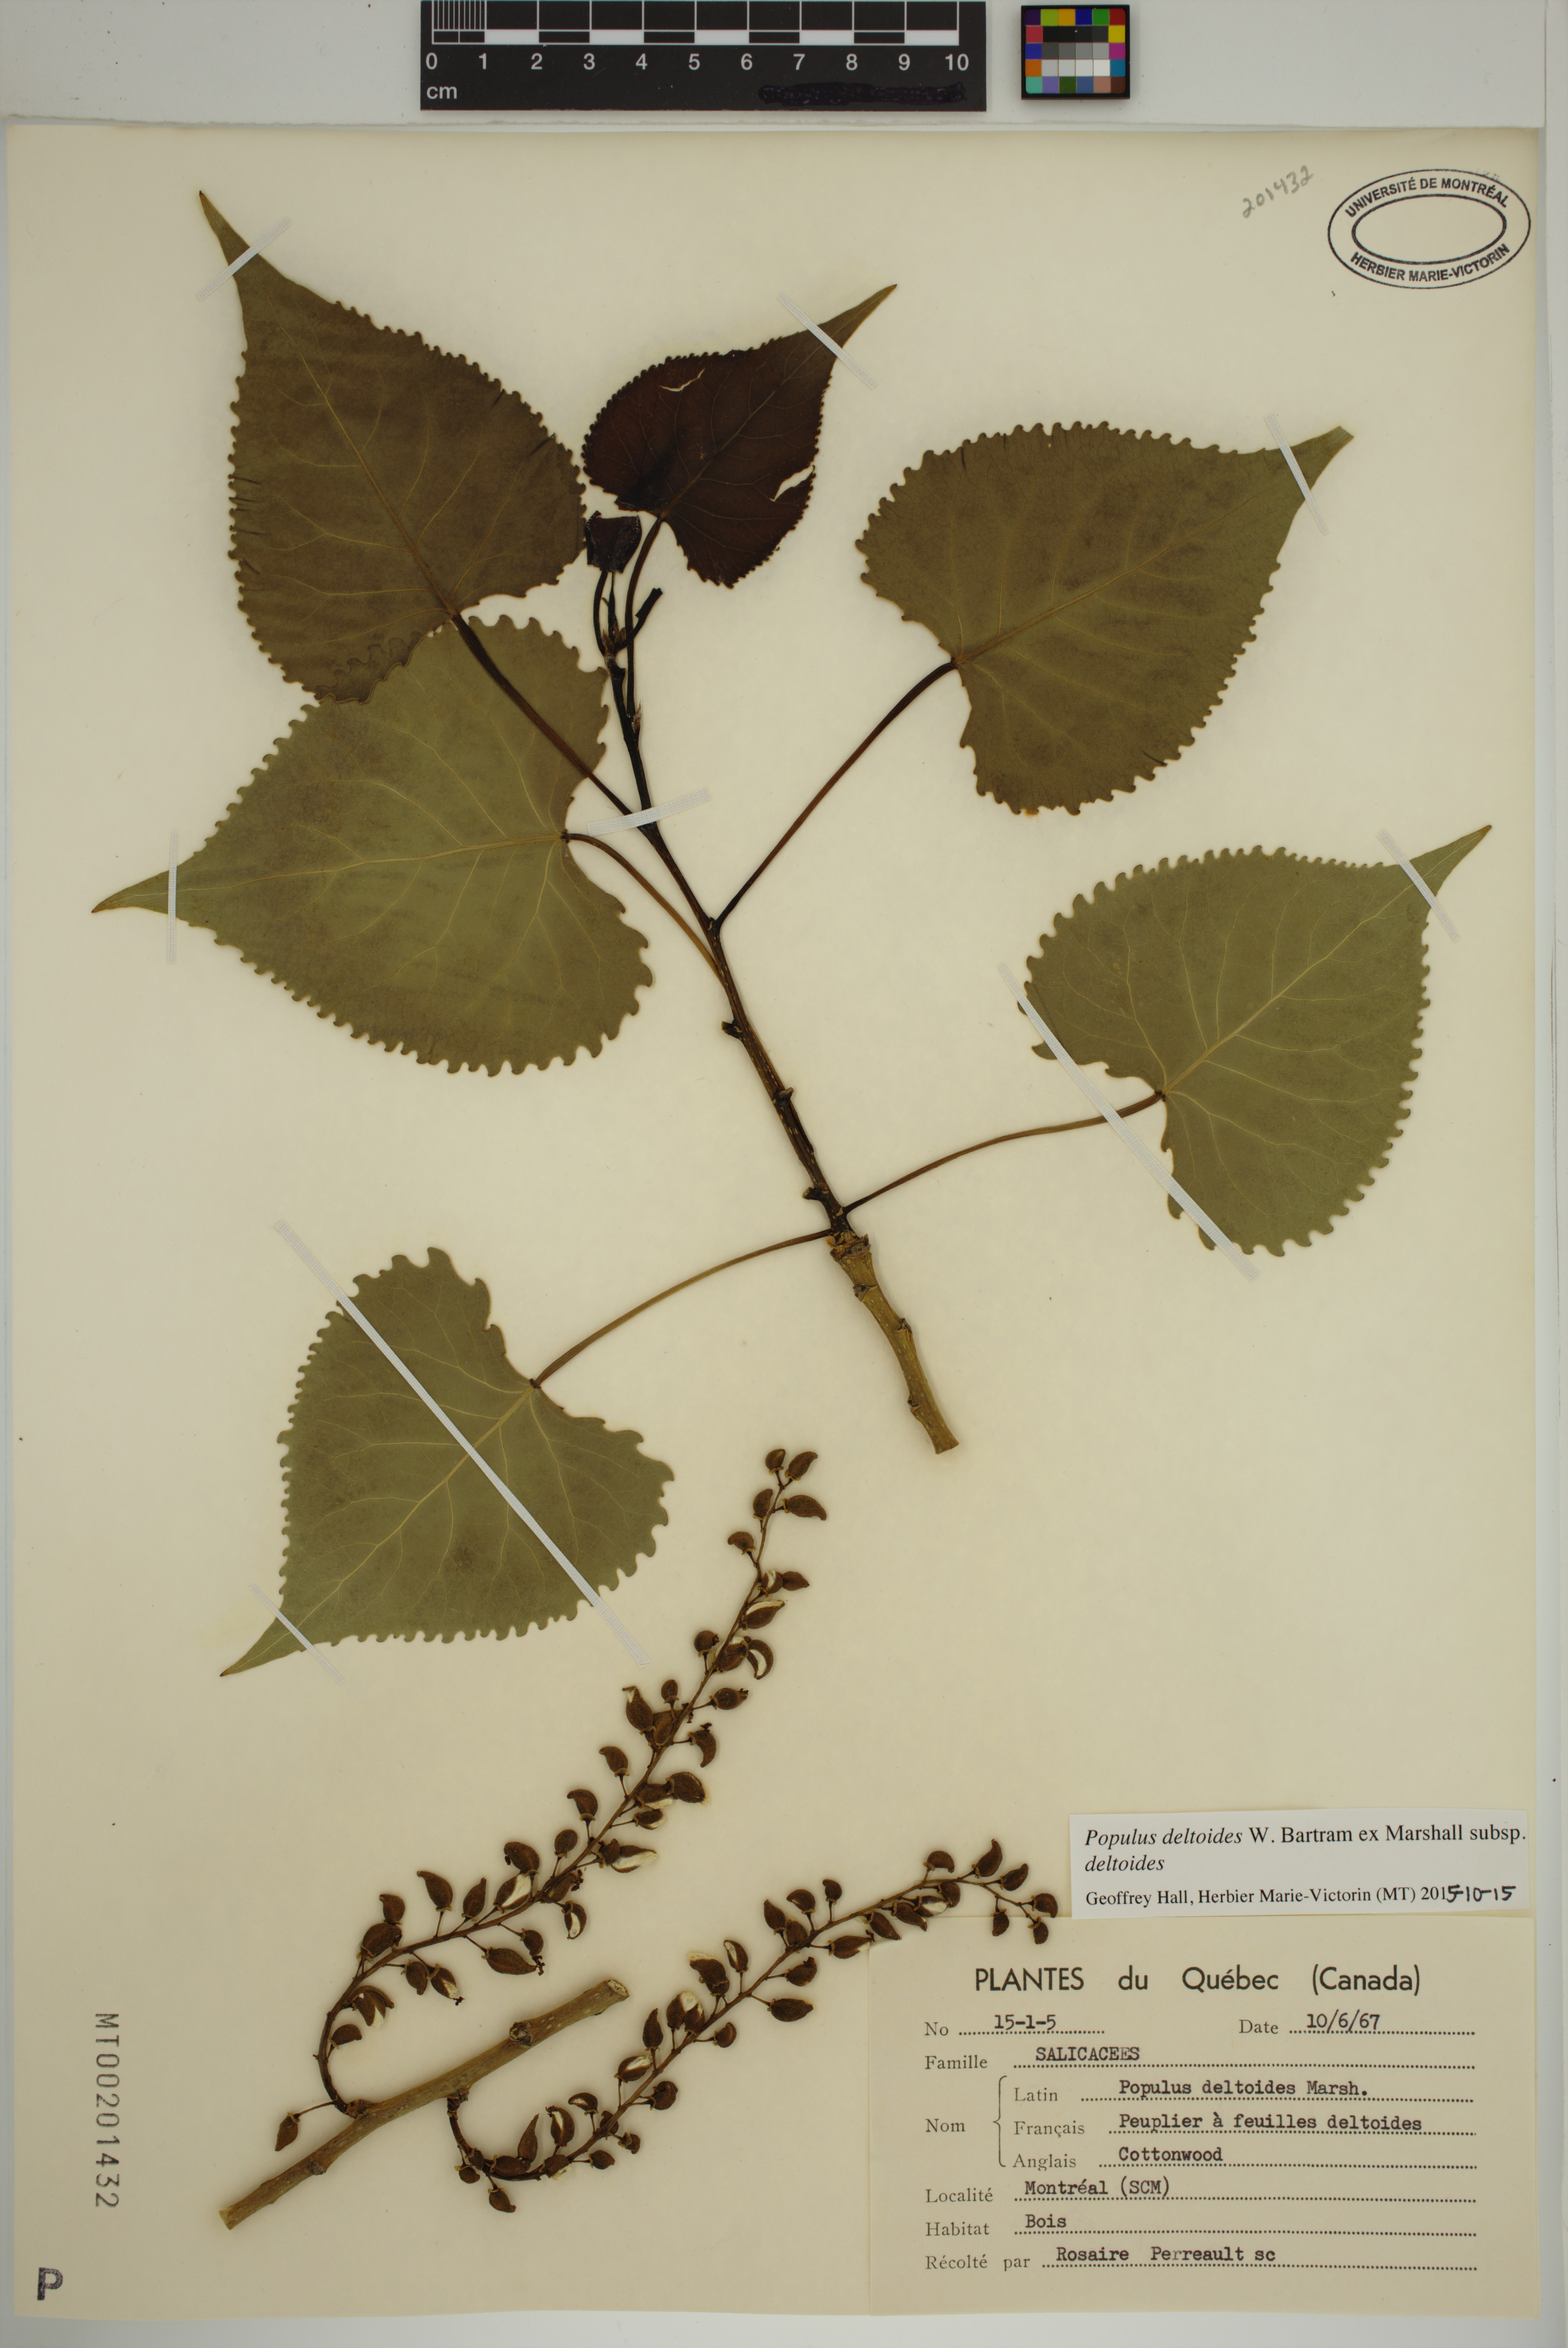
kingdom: Plantae
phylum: Tracheophyta
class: Magnoliopsida
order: Malpighiales
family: Salicaceae
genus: Populus
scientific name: Populus deltoides
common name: Eastern cottonwood
